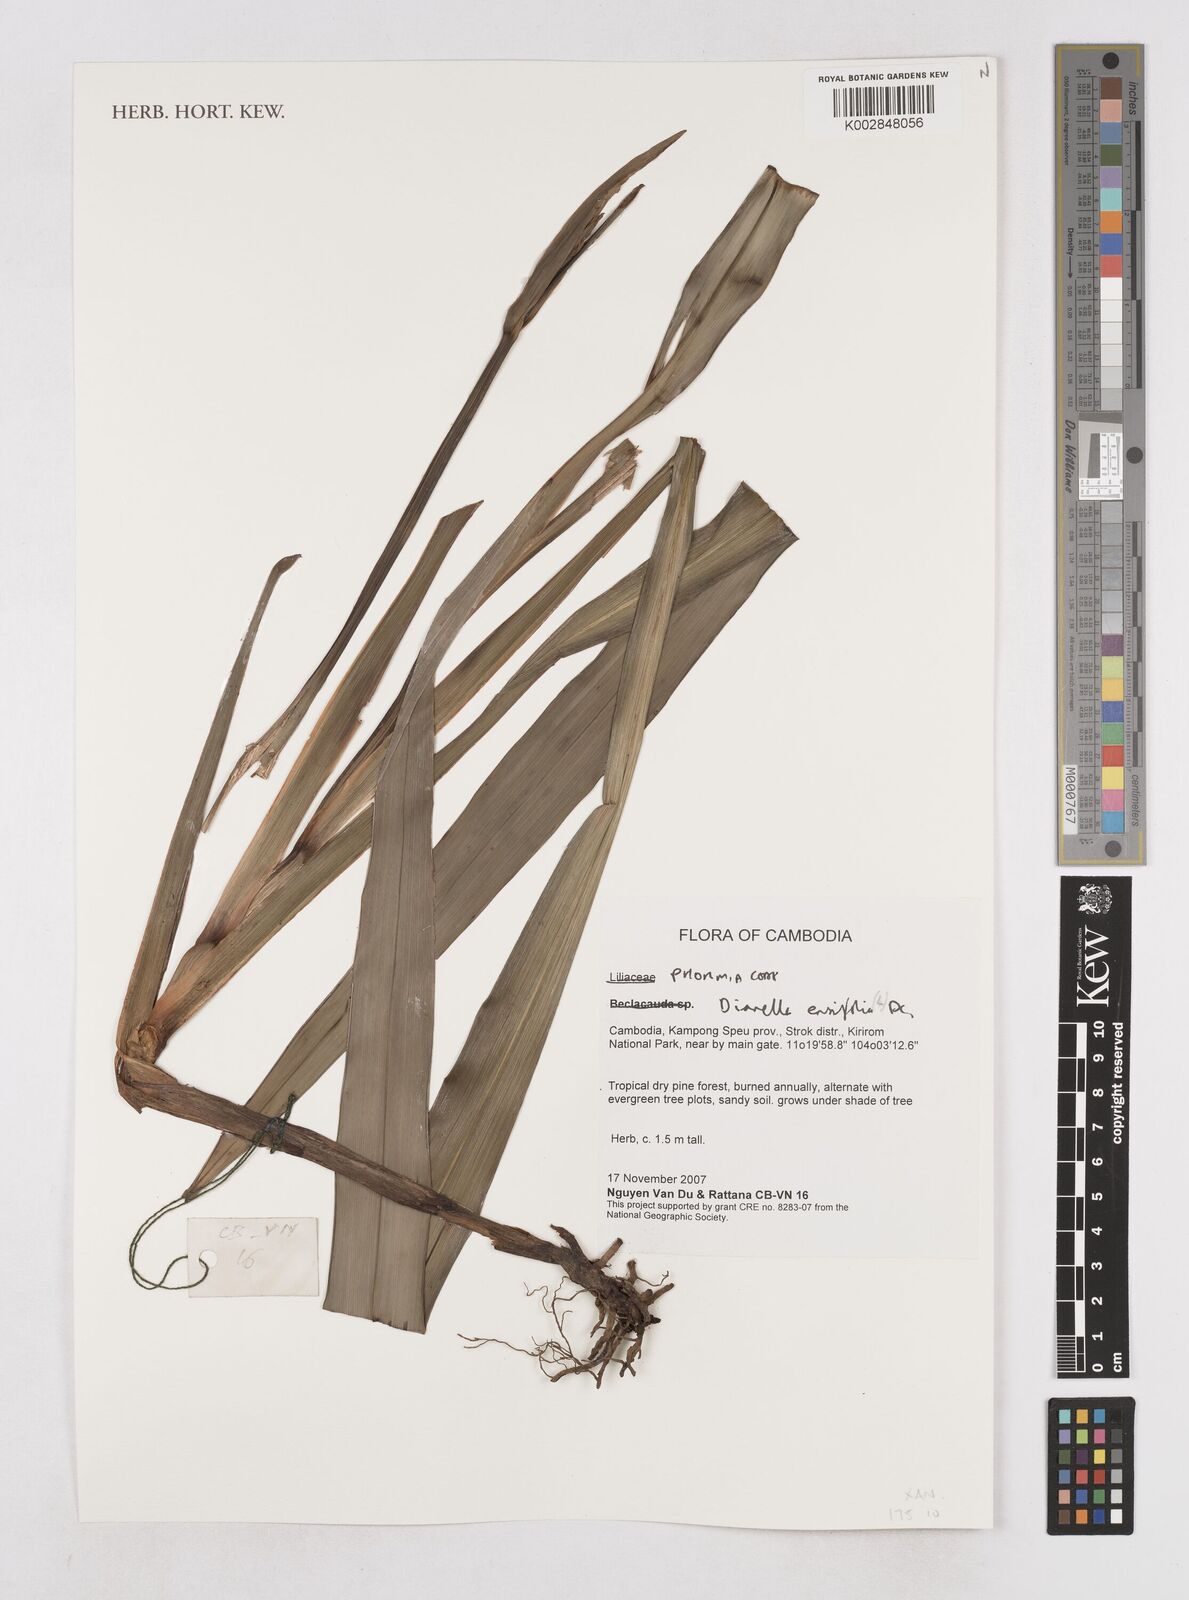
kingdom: Plantae
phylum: Tracheophyta
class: Liliopsida
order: Asparagales
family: Asphodelaceae
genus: Dianella
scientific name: Dianella ensifolia
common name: New zealand lilyplant
